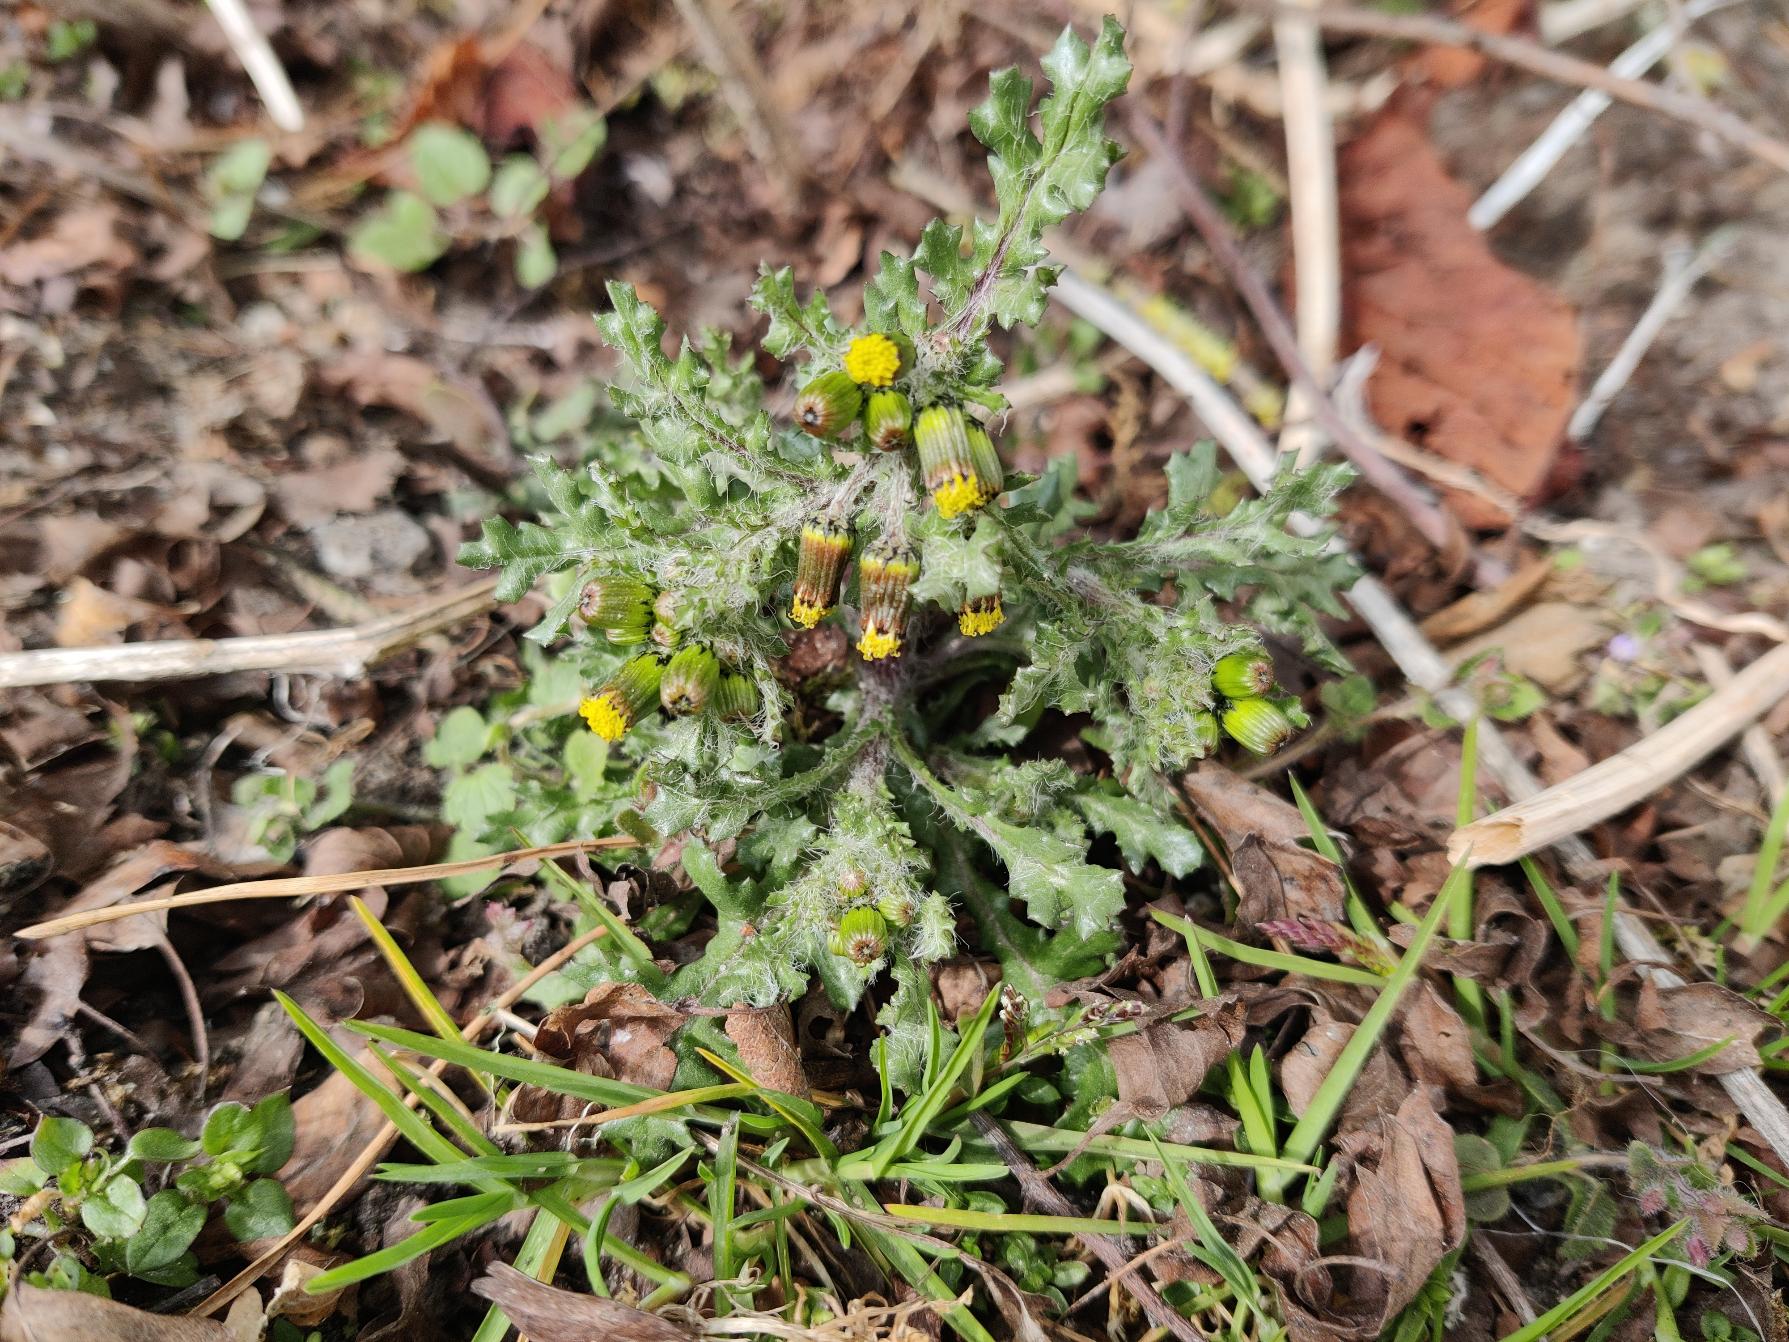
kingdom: Plantae
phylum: Tracheophyta
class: Magnoliopsida
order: Asterales
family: Asteraceae
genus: Senecio
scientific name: Senecio vulgaris
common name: Almindelig brandbæger
